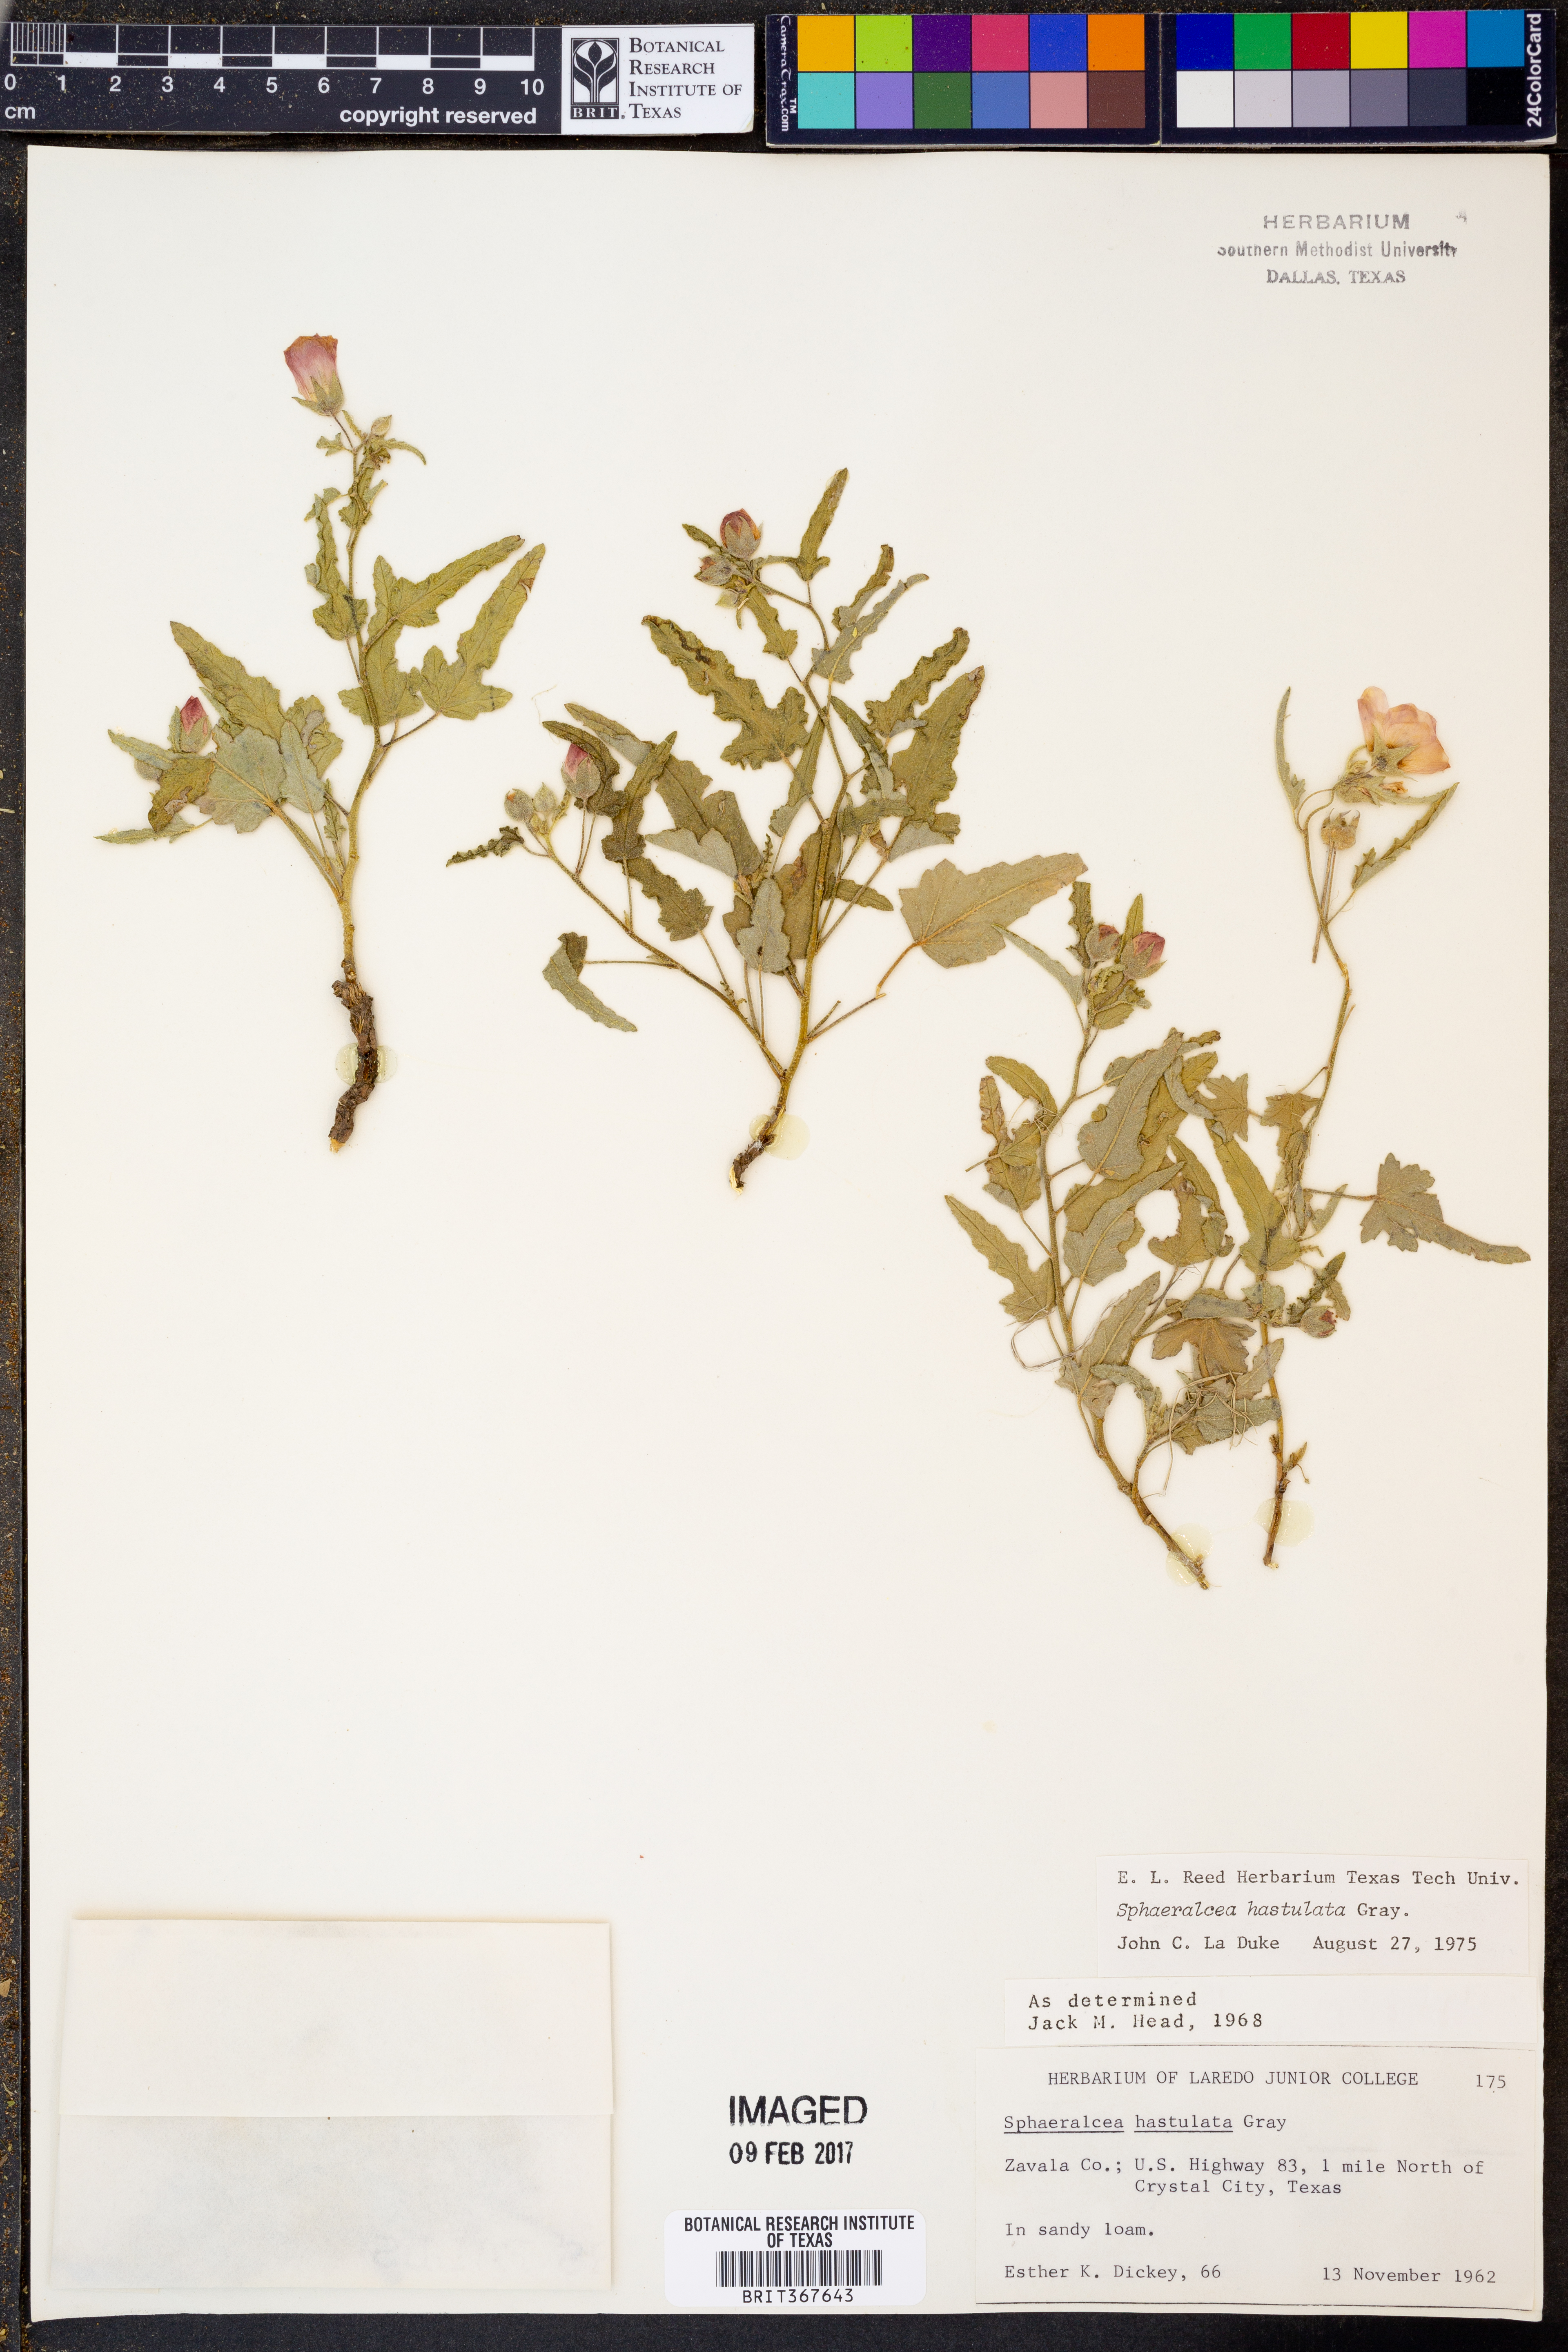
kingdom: Plantae
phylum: Tracheophyta
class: Magnoliopsida
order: Malvales
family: Malvaceae
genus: Sphaeralcea
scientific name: Sphaeralcea hastulata
